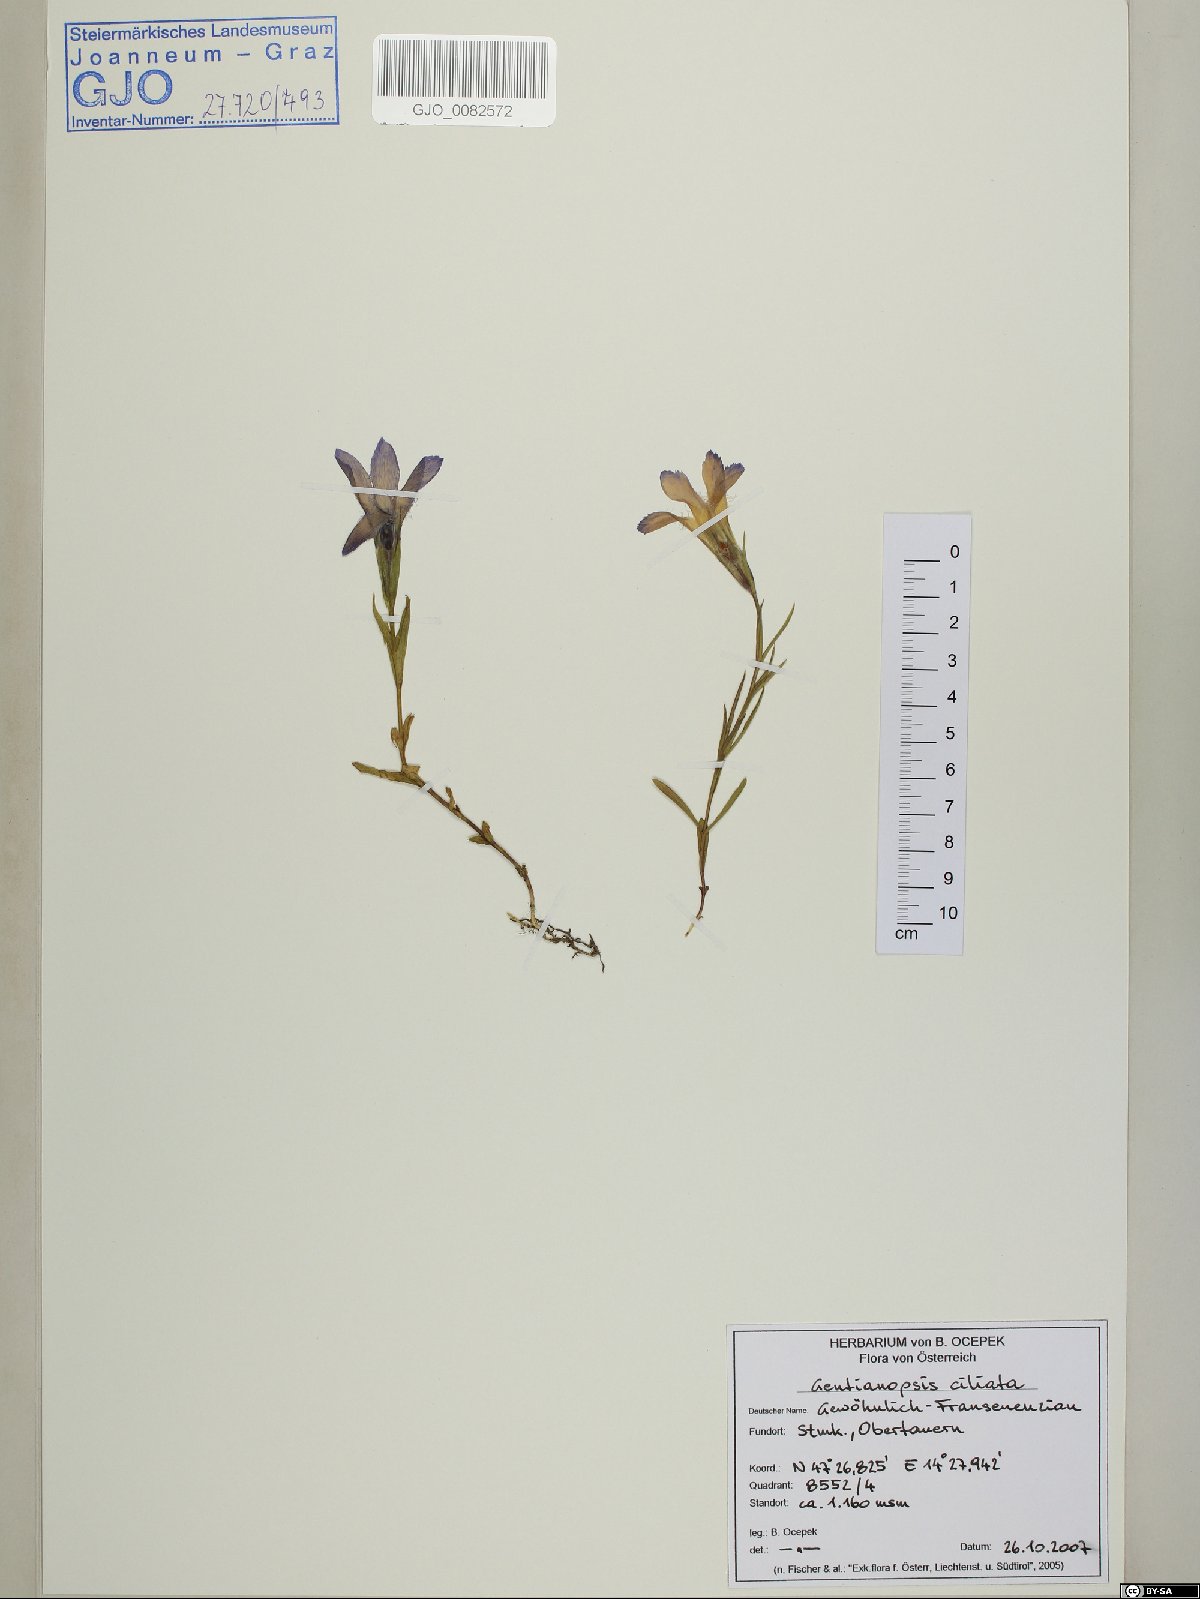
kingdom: Plantae
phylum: Tracheophyta
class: Magnoliopsida
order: Gentianales
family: Gentianaceae
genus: Gentianopsis
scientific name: Gentianopsis ciliata
